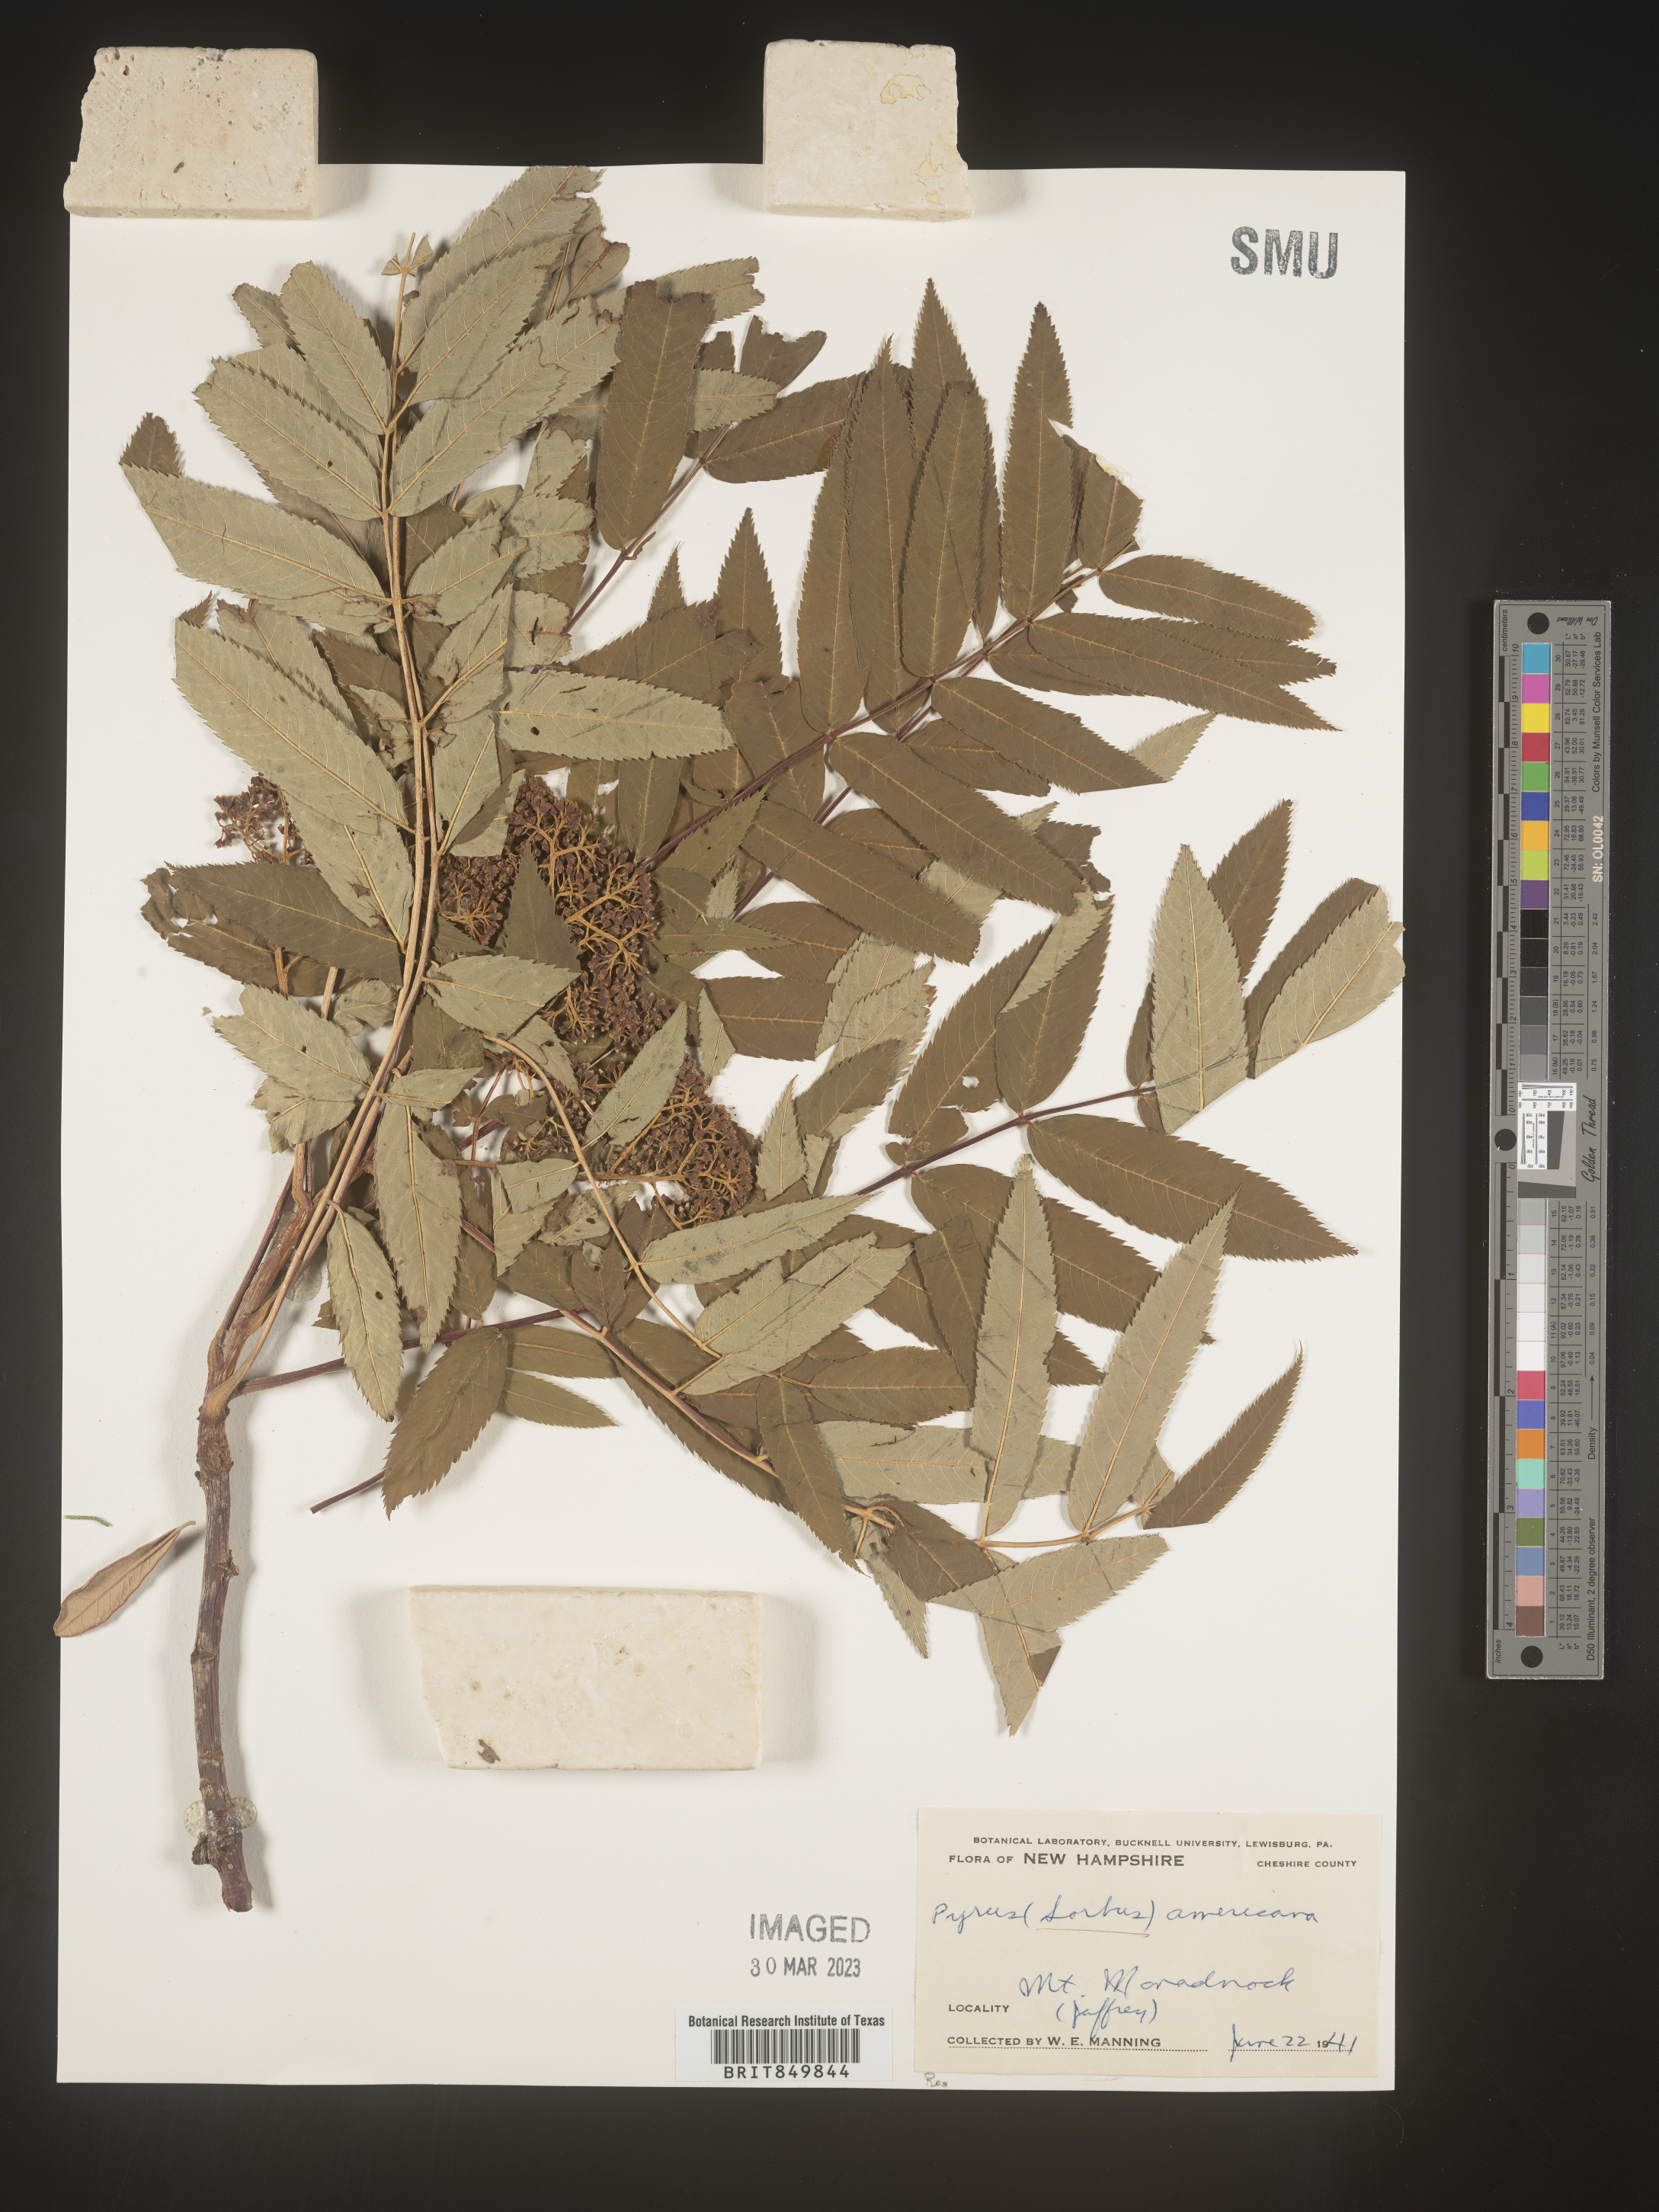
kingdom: Plantae
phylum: Tracheophyta
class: Magnoliopsida
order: Rosales
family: Rosaceae
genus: Sorbus
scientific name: Sorbus
